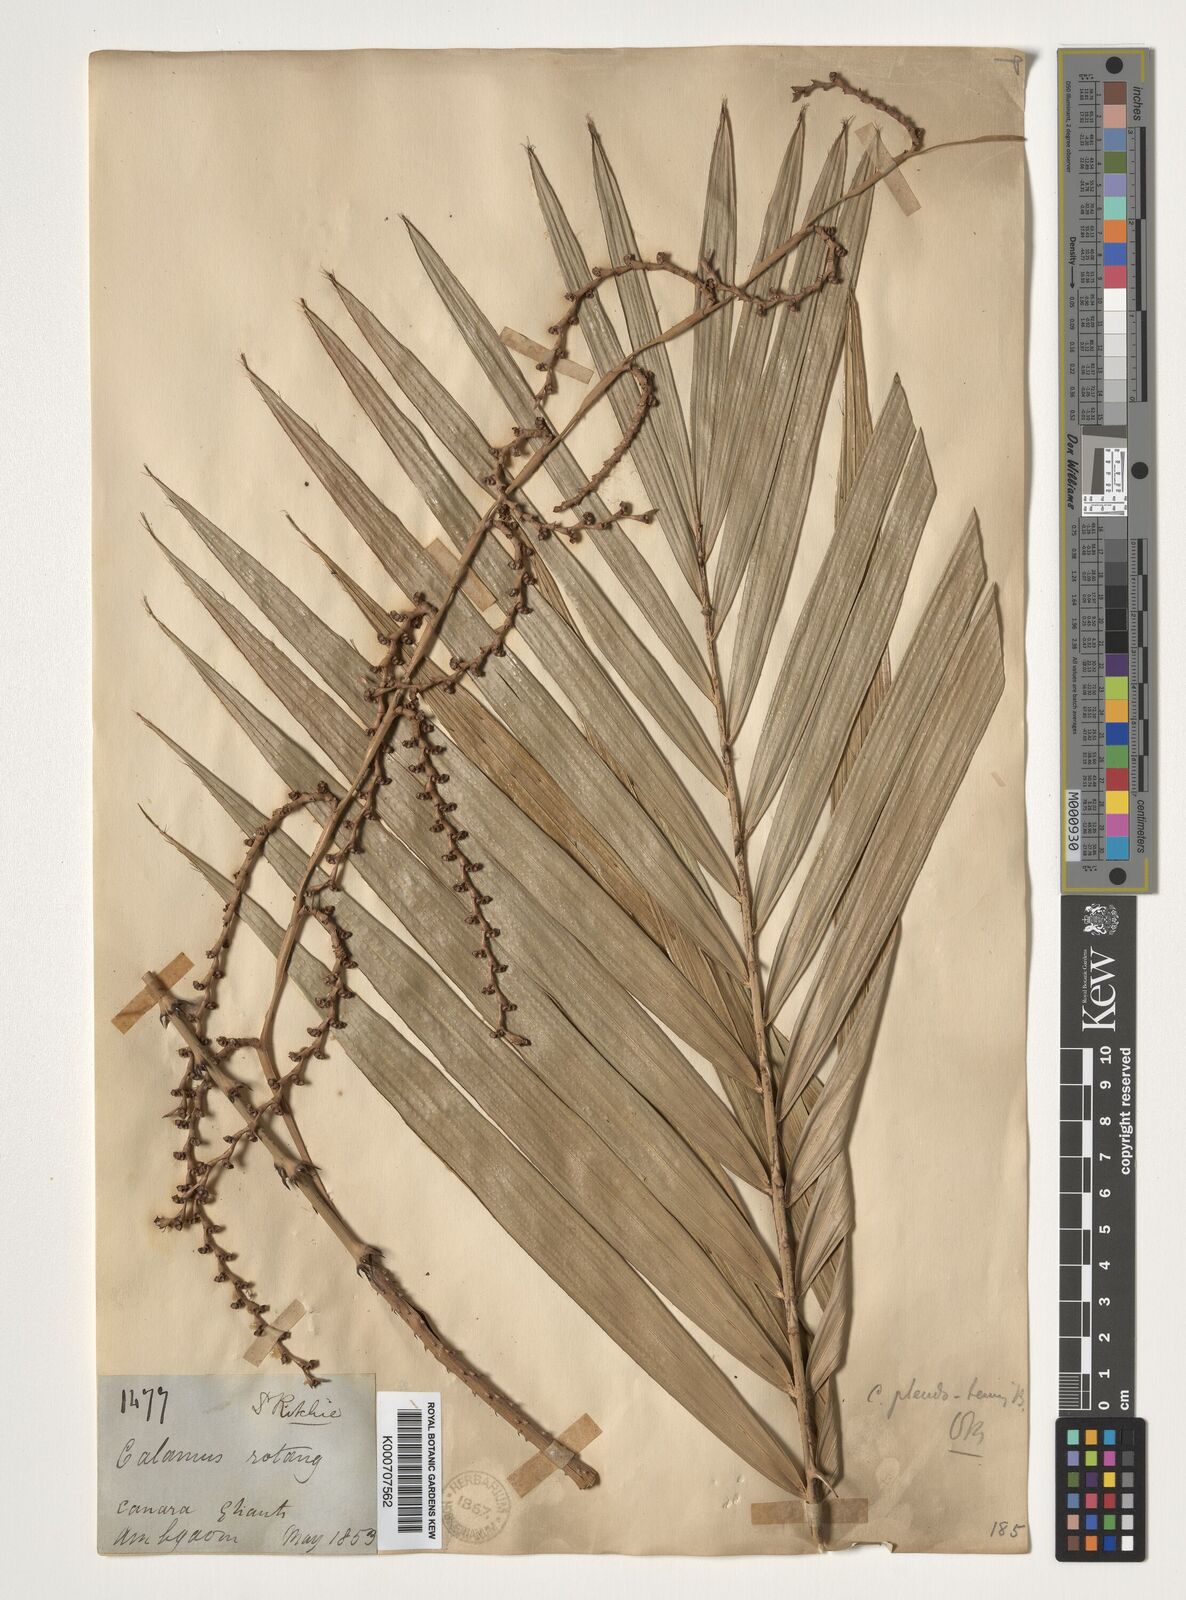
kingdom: Plantae
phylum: Tracheophyta
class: Liliopsida
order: Arecales
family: Arecaceae
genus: Calamus
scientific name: Calamus pseudotenuis
